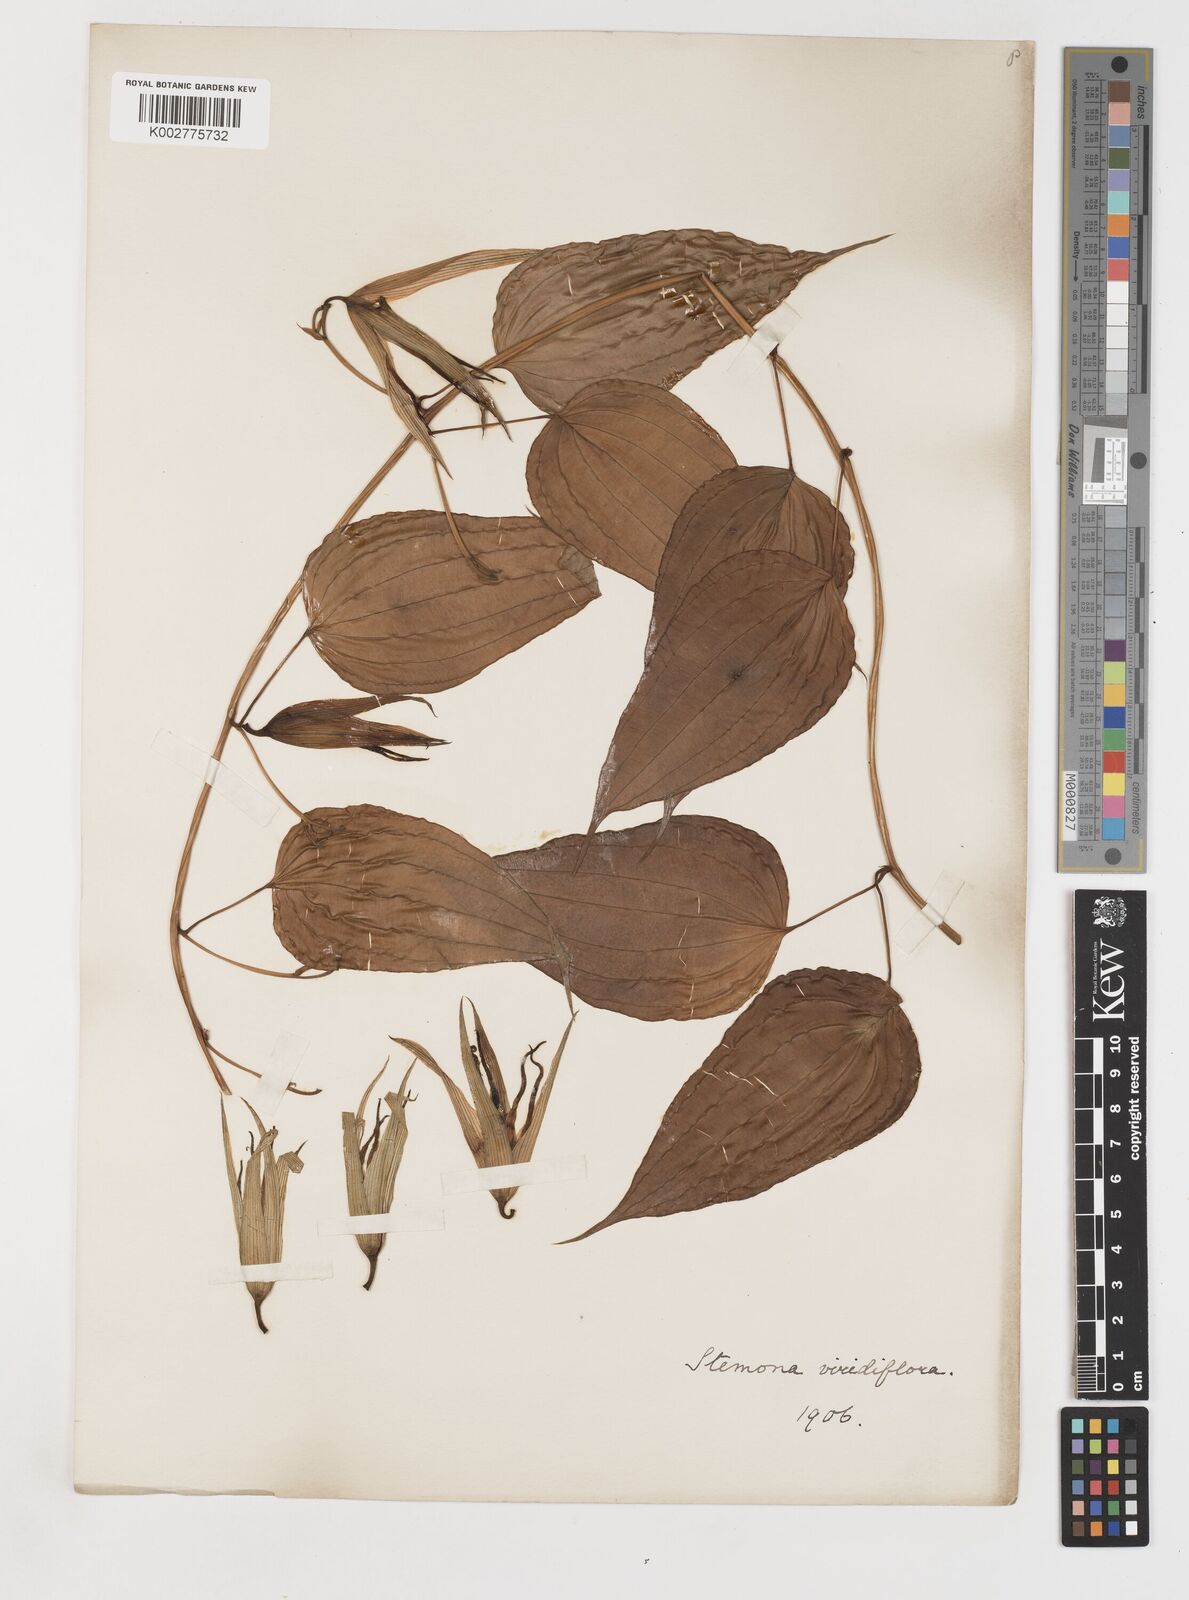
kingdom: Plantae
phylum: Tracheophyta
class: Liliopsida
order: Pandanales
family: Stemonaceae
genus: Stemona
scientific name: Stemona tuberosa
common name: Stemona
